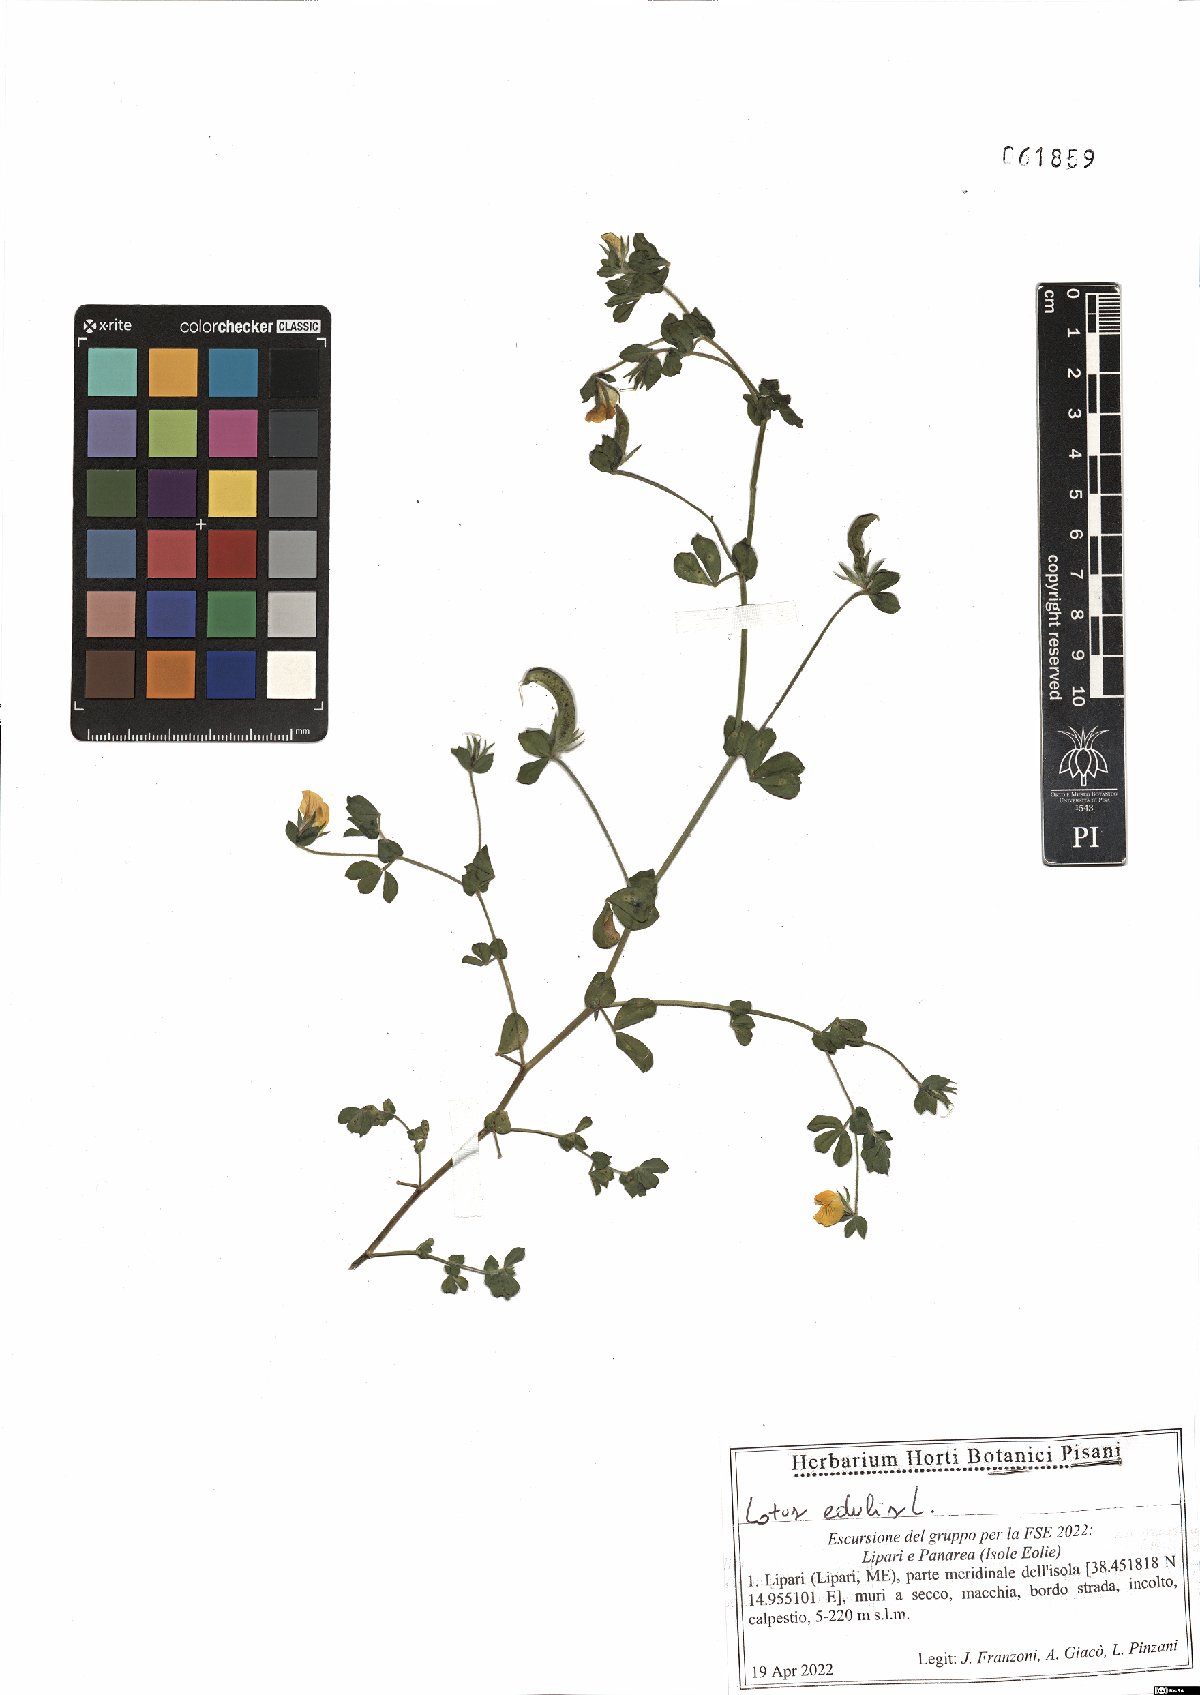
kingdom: Plantae
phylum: Tracheophyta
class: Magnoliopsida
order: Fabales
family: Fabaceae
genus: Lotus
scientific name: Lotus edulis
